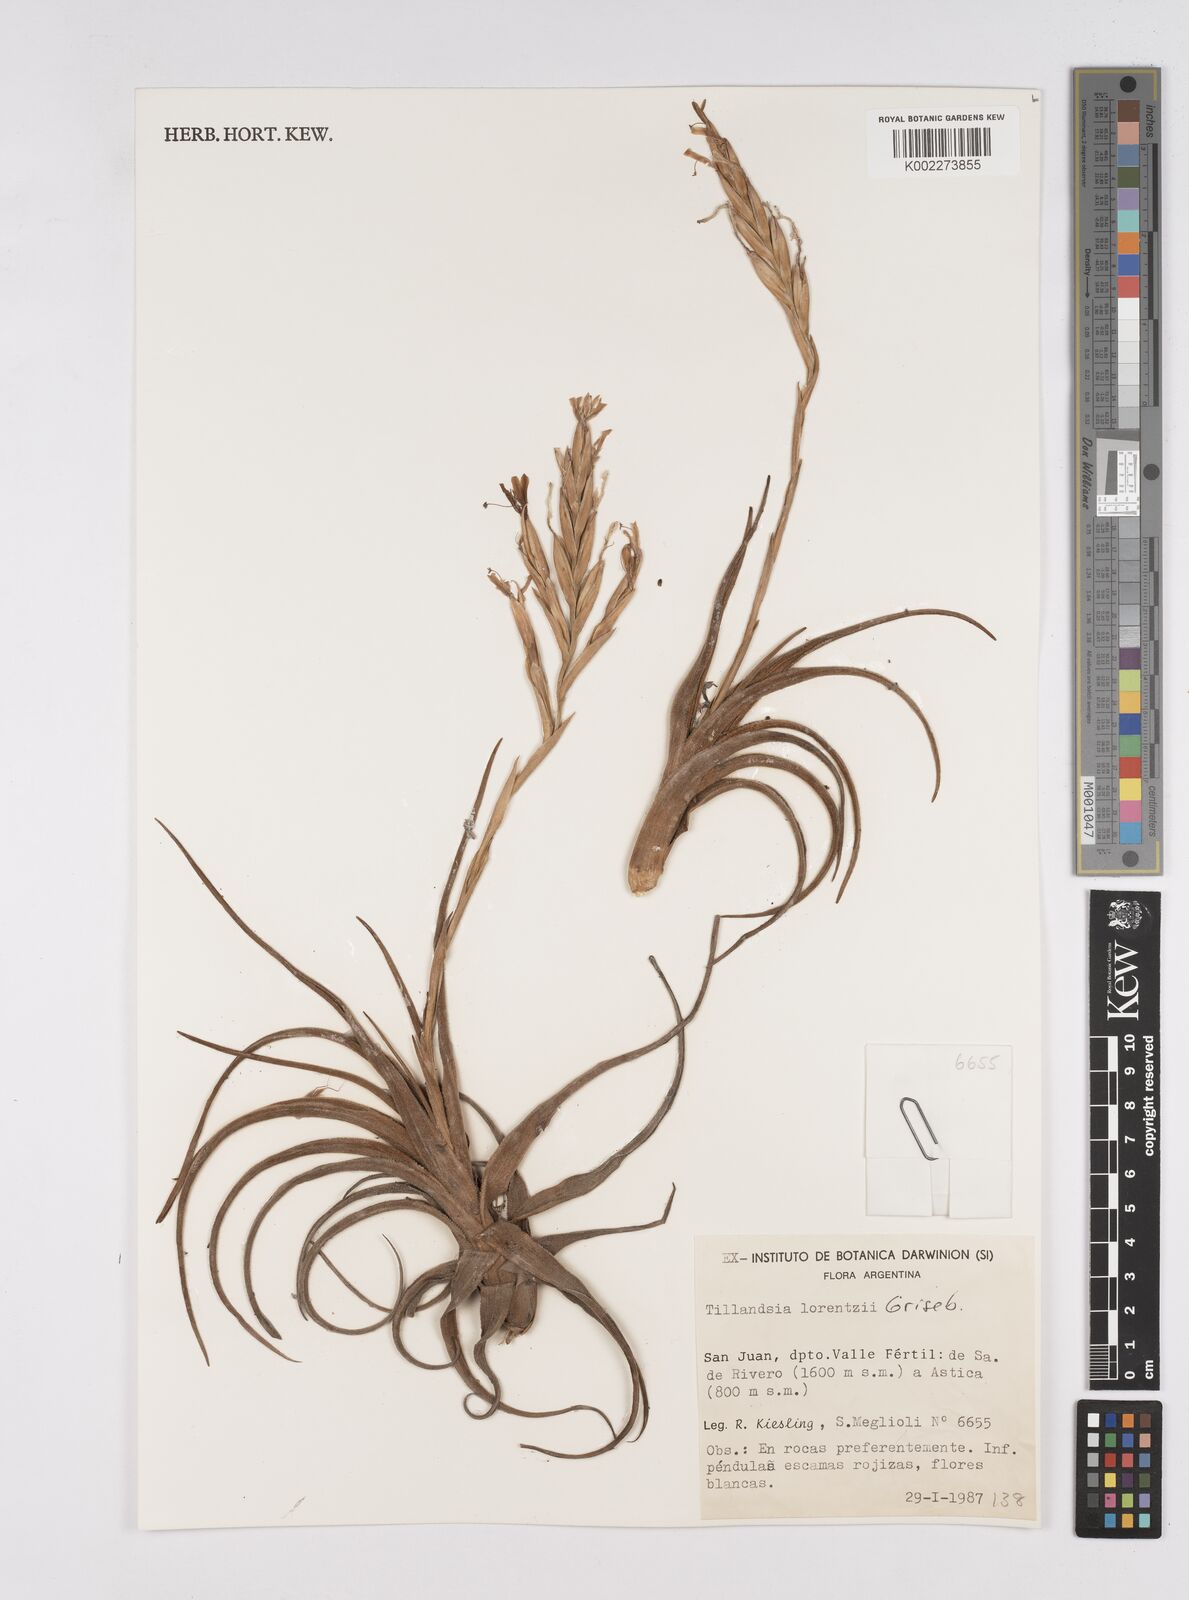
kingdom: Plantae
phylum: Tracheophyta
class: Liliopsida
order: Poales
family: Bromeliaceae
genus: Tillandsia
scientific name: Tillandsia lorentziana
